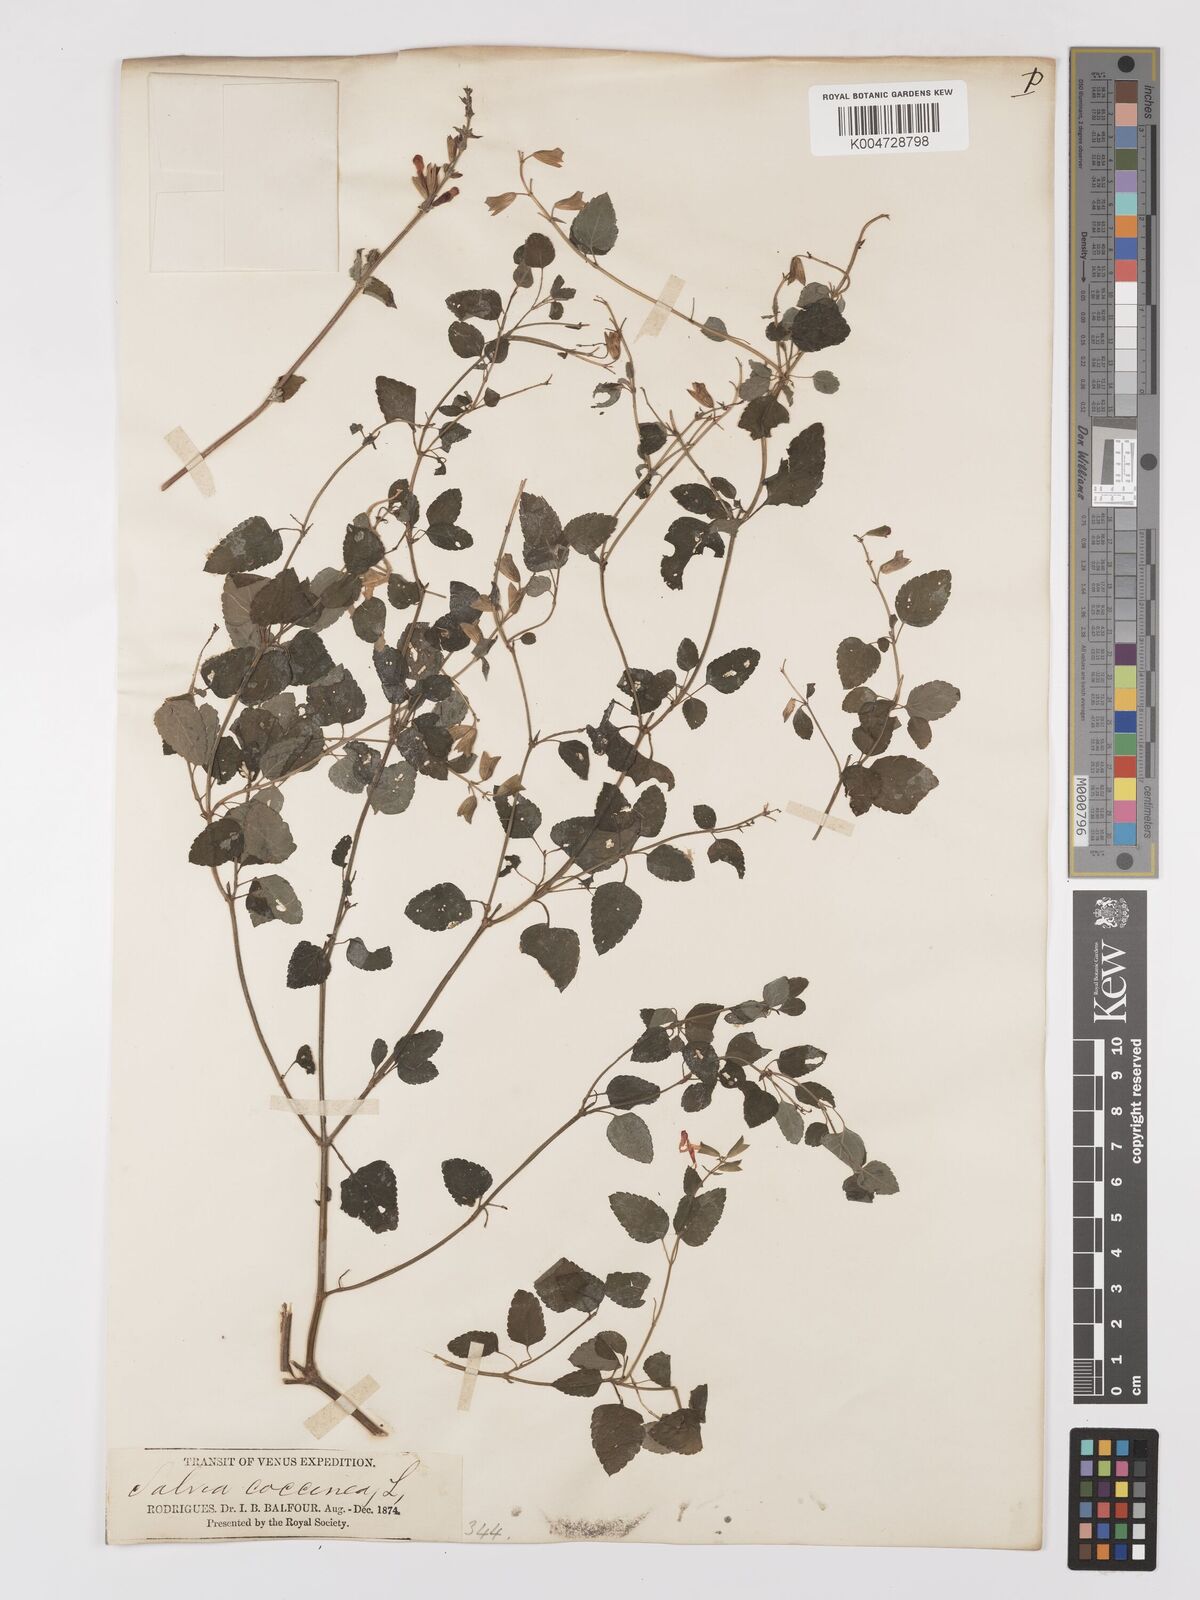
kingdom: Plantae
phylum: Tracheophyta
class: Magnoliopsida
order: Lamiales
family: Lamiaceae
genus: Salvia
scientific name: Salvia
